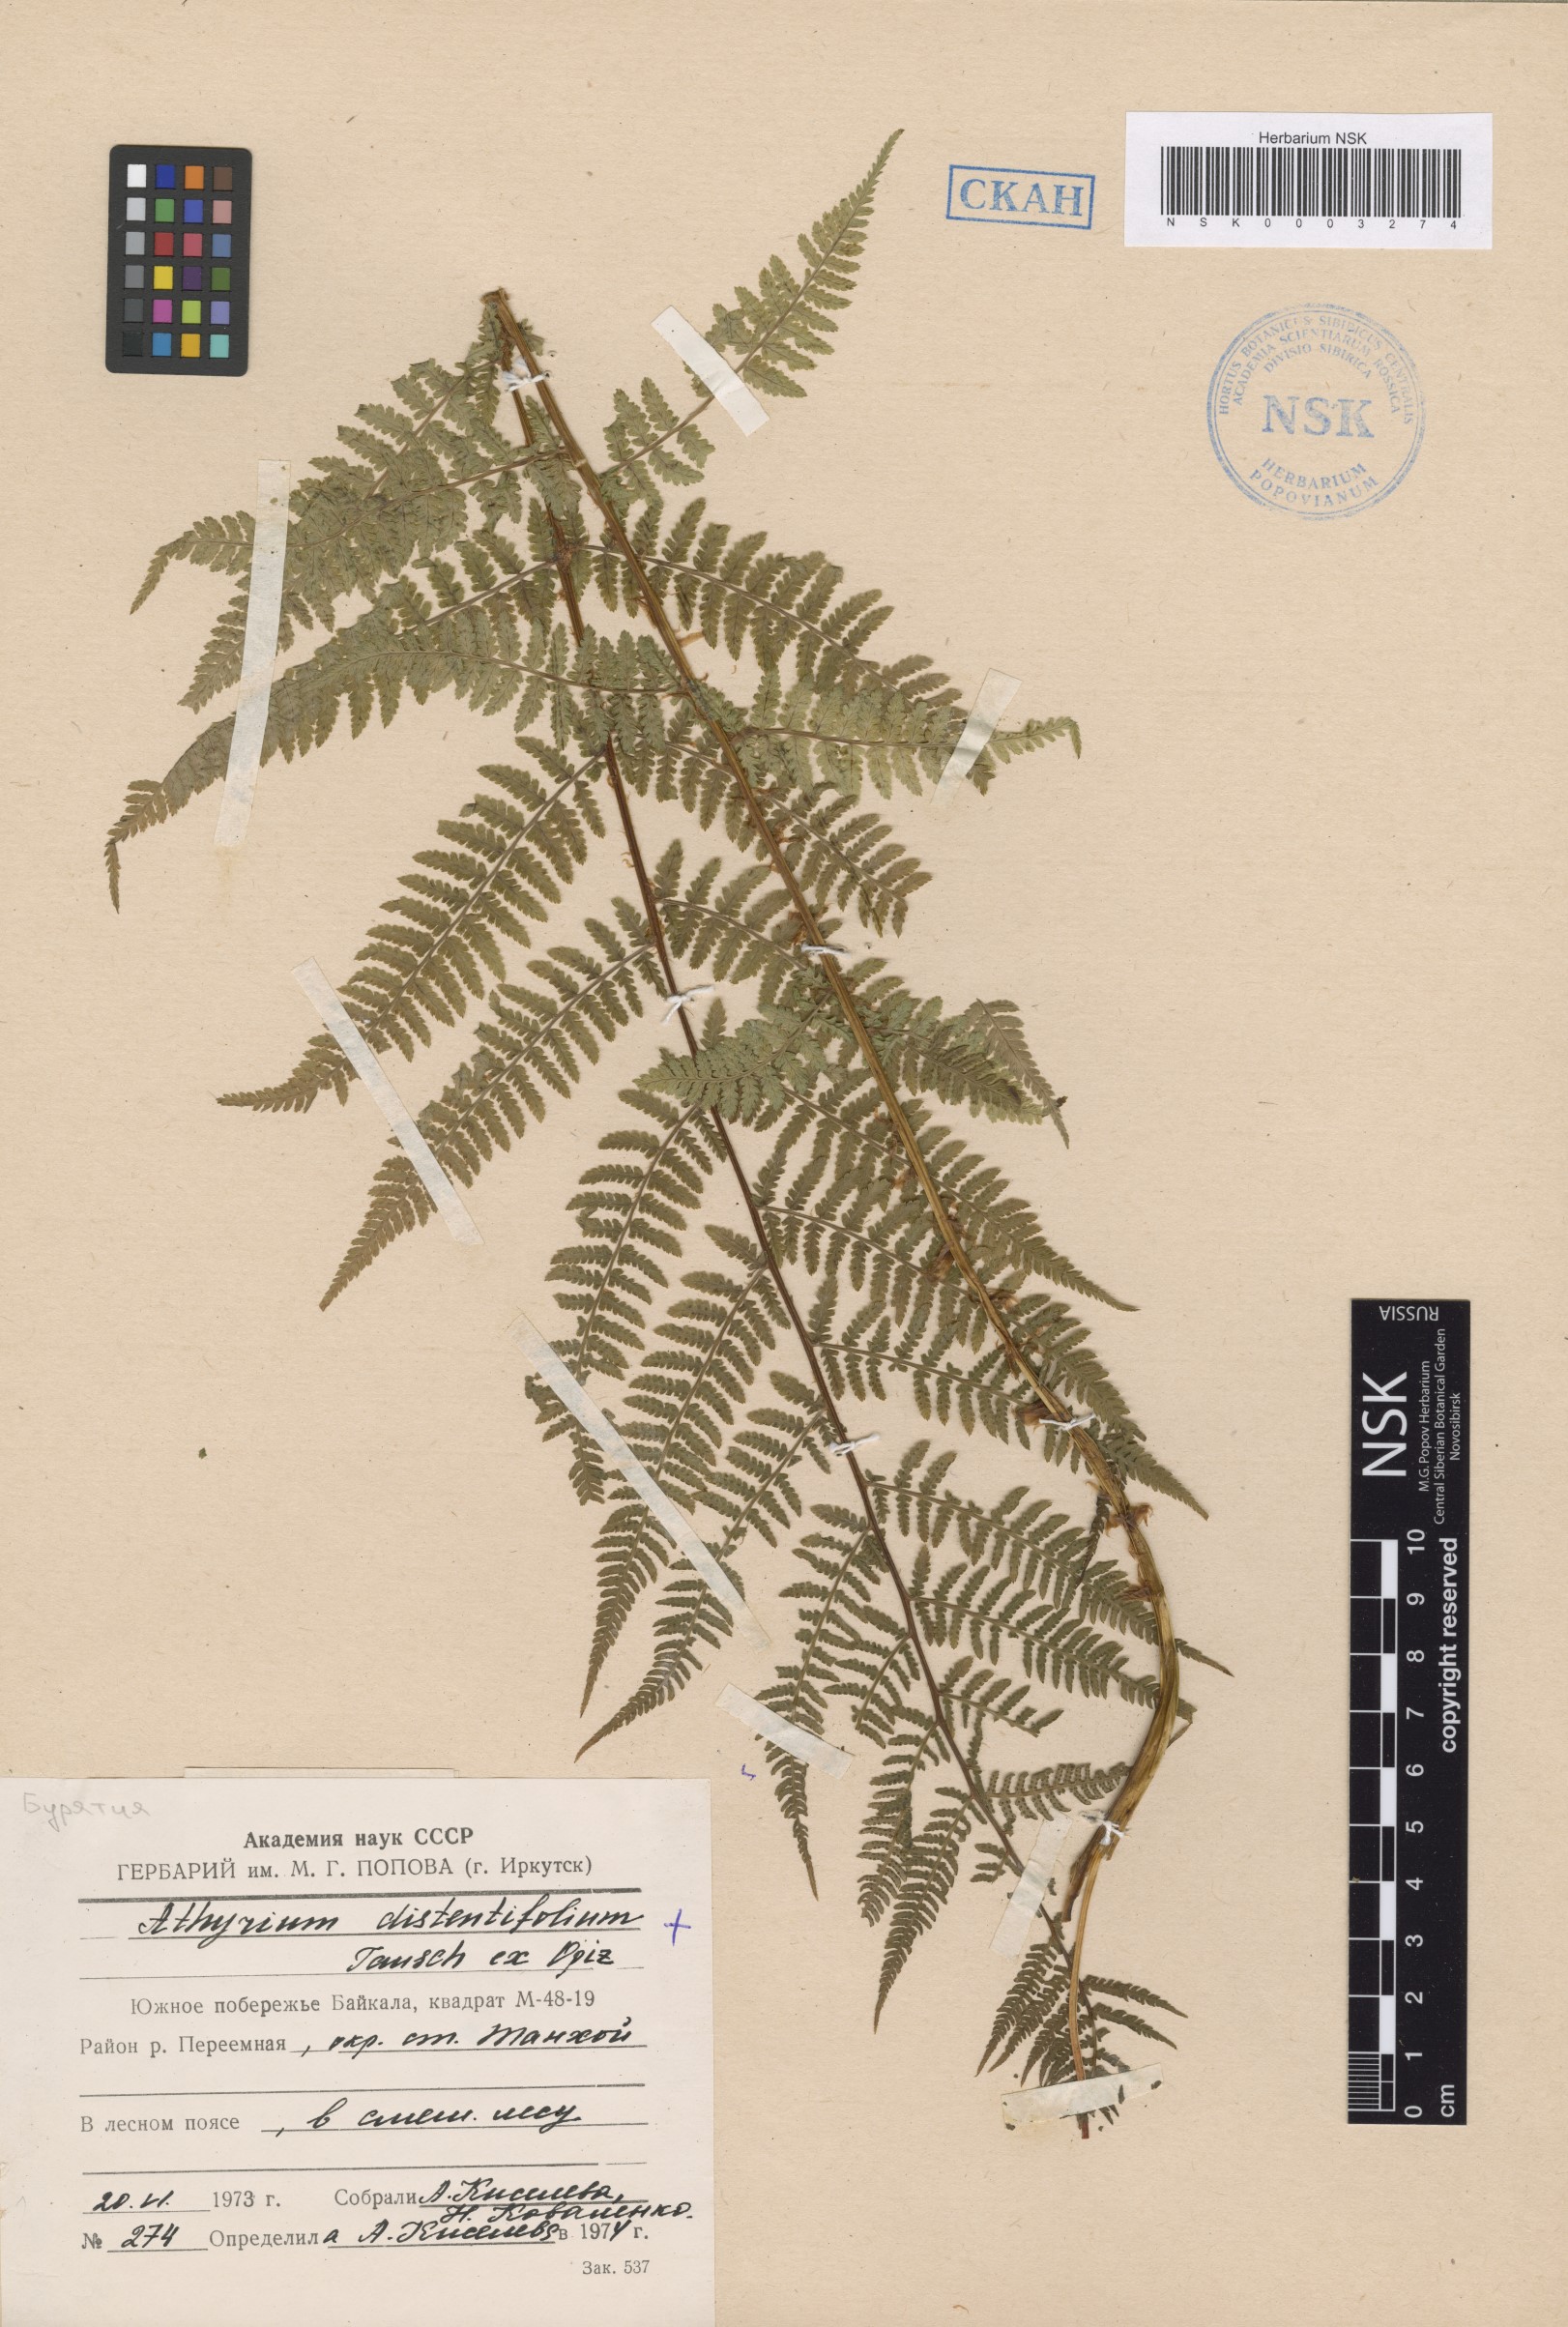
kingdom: Plantae
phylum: Tracheophyta
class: Polypodiopsida
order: Polypodiales
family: Athyriaceae
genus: Pseudathyrium
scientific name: Pseudathyrium alpestre
